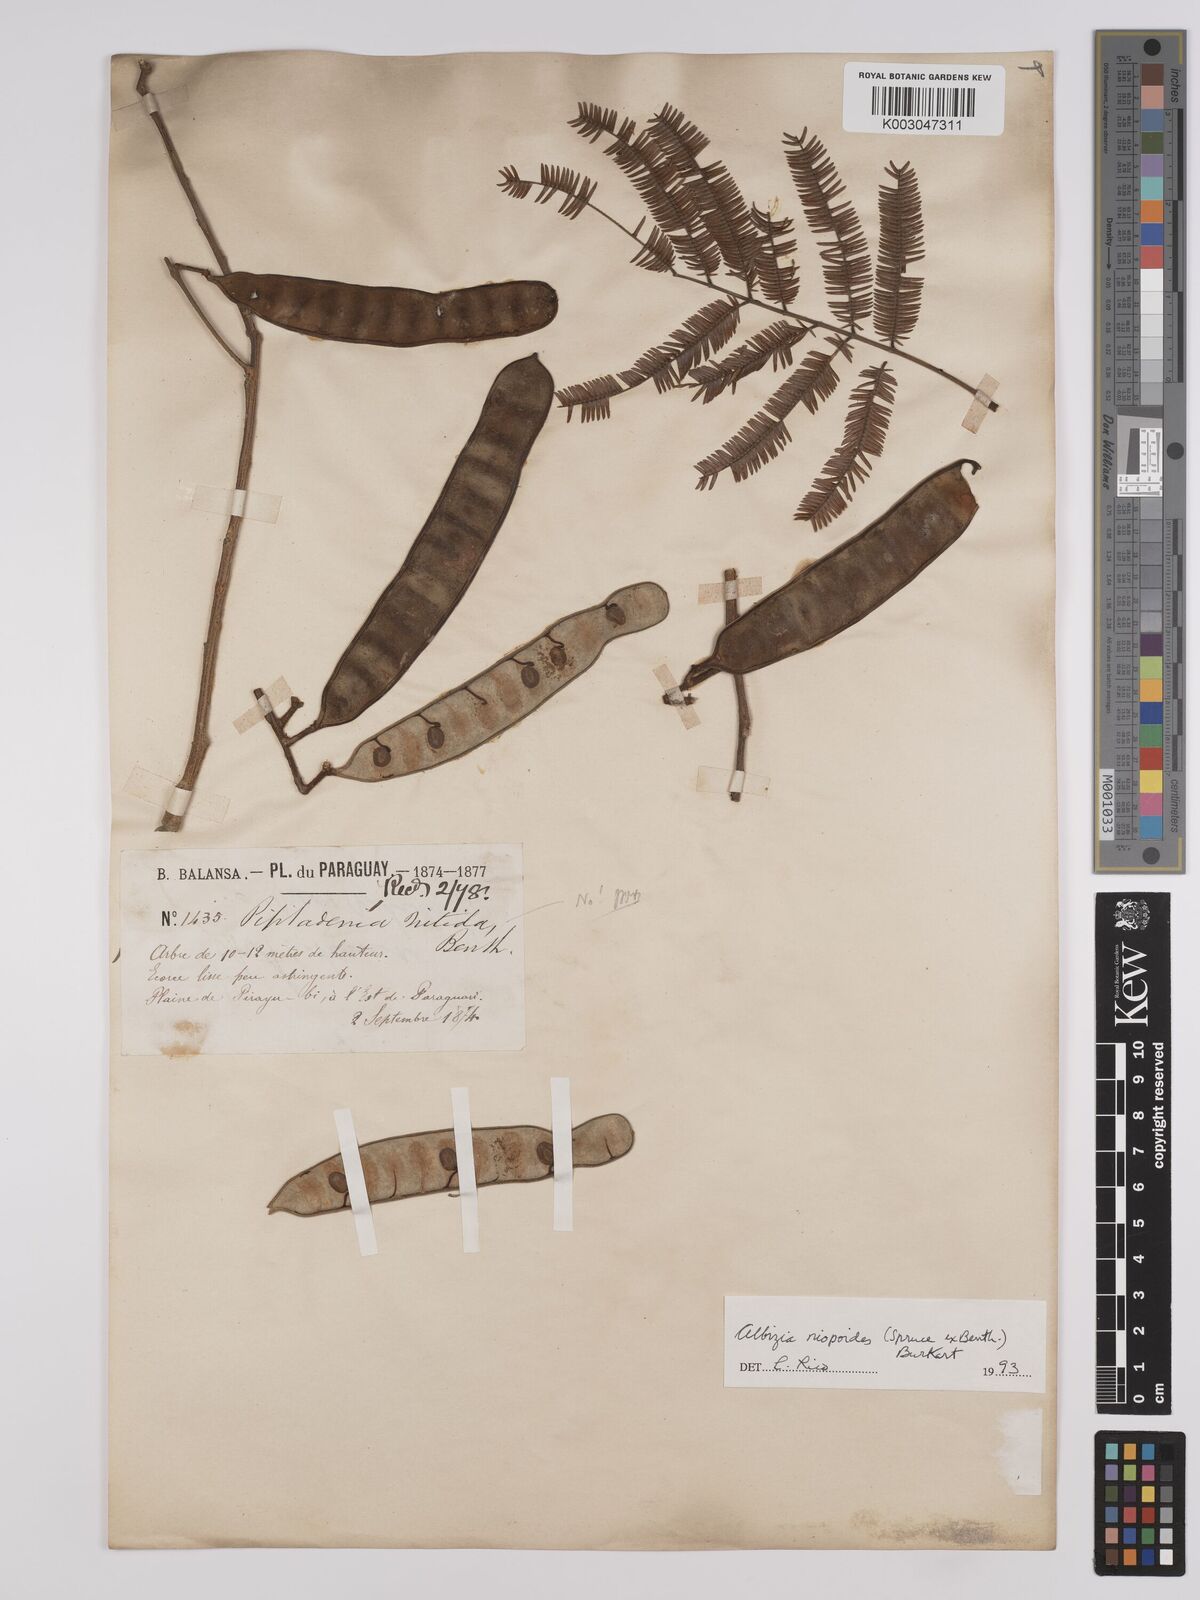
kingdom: Plantae
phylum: Tracheophyta
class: Magnoliopsida
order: Fabales
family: Fabaceae
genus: Albizia
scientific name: Albizia niopoides
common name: Silk tree
